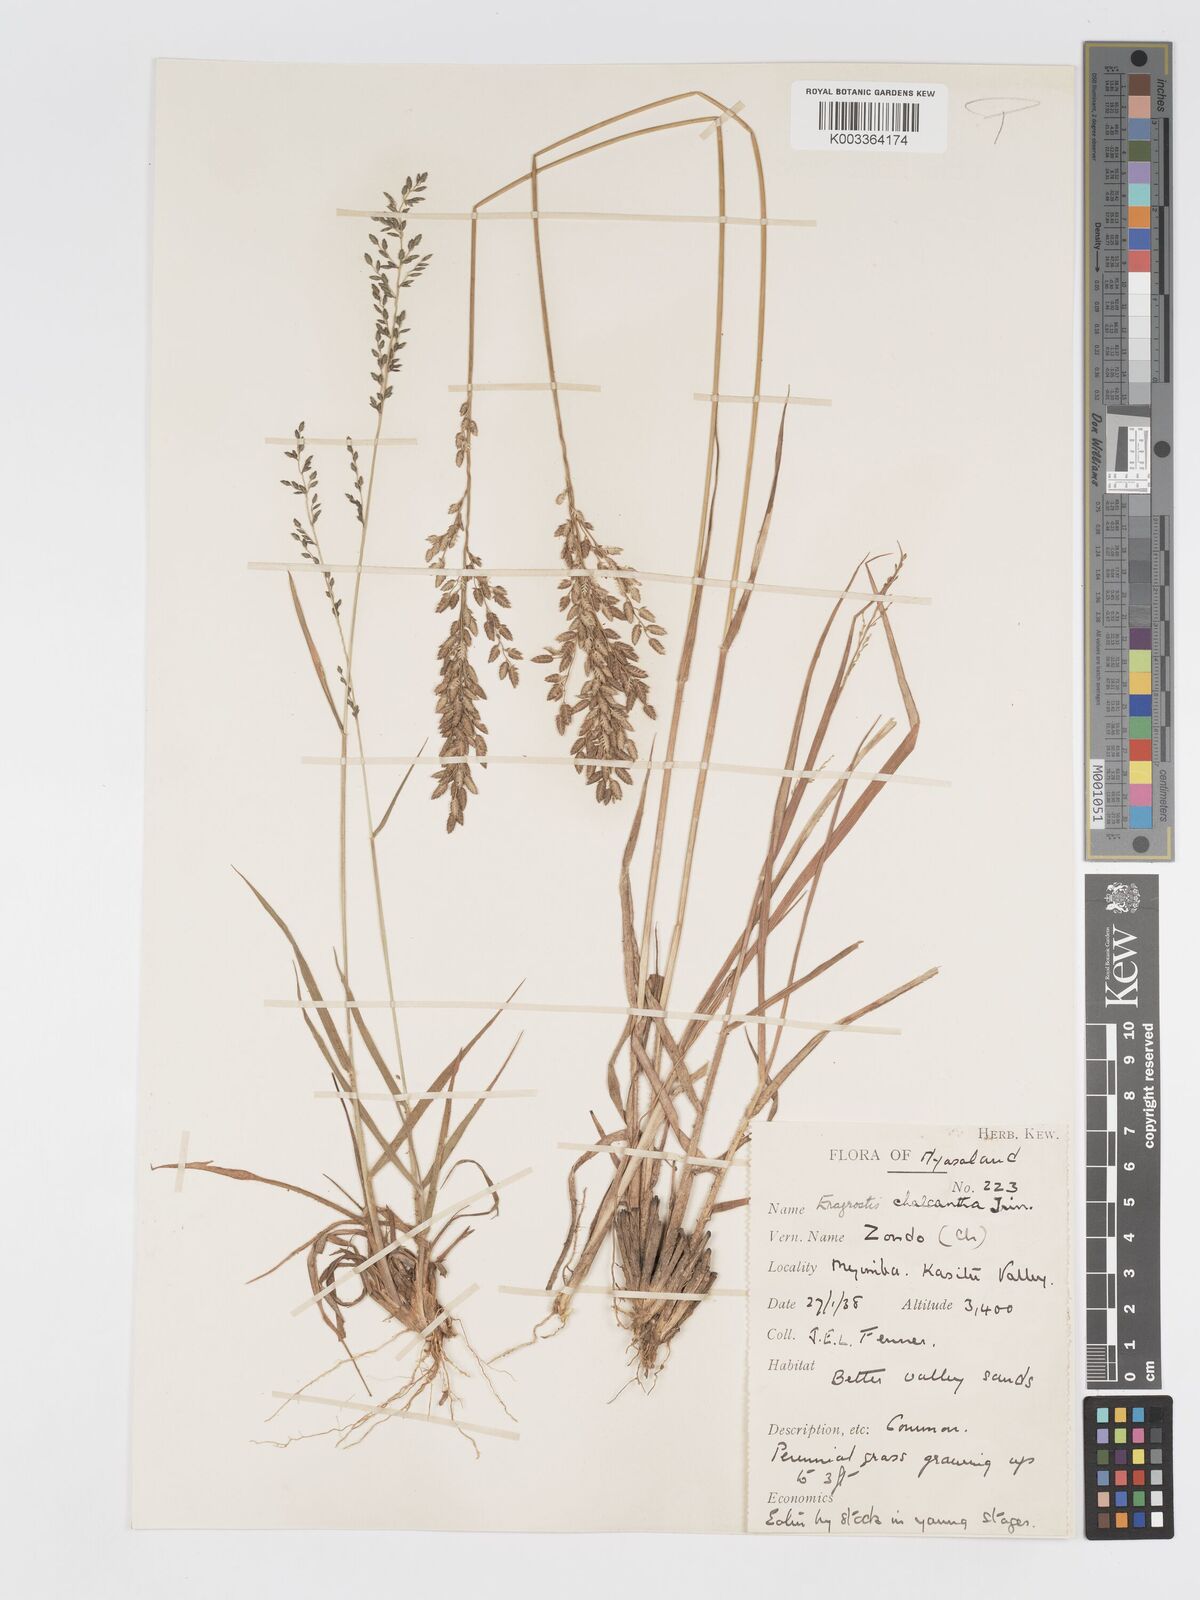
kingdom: Plantae
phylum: Tracheophyta
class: Liliopsida
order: Poales
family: Poaceae
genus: Eragrostis
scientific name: Eragrostis racemosa
